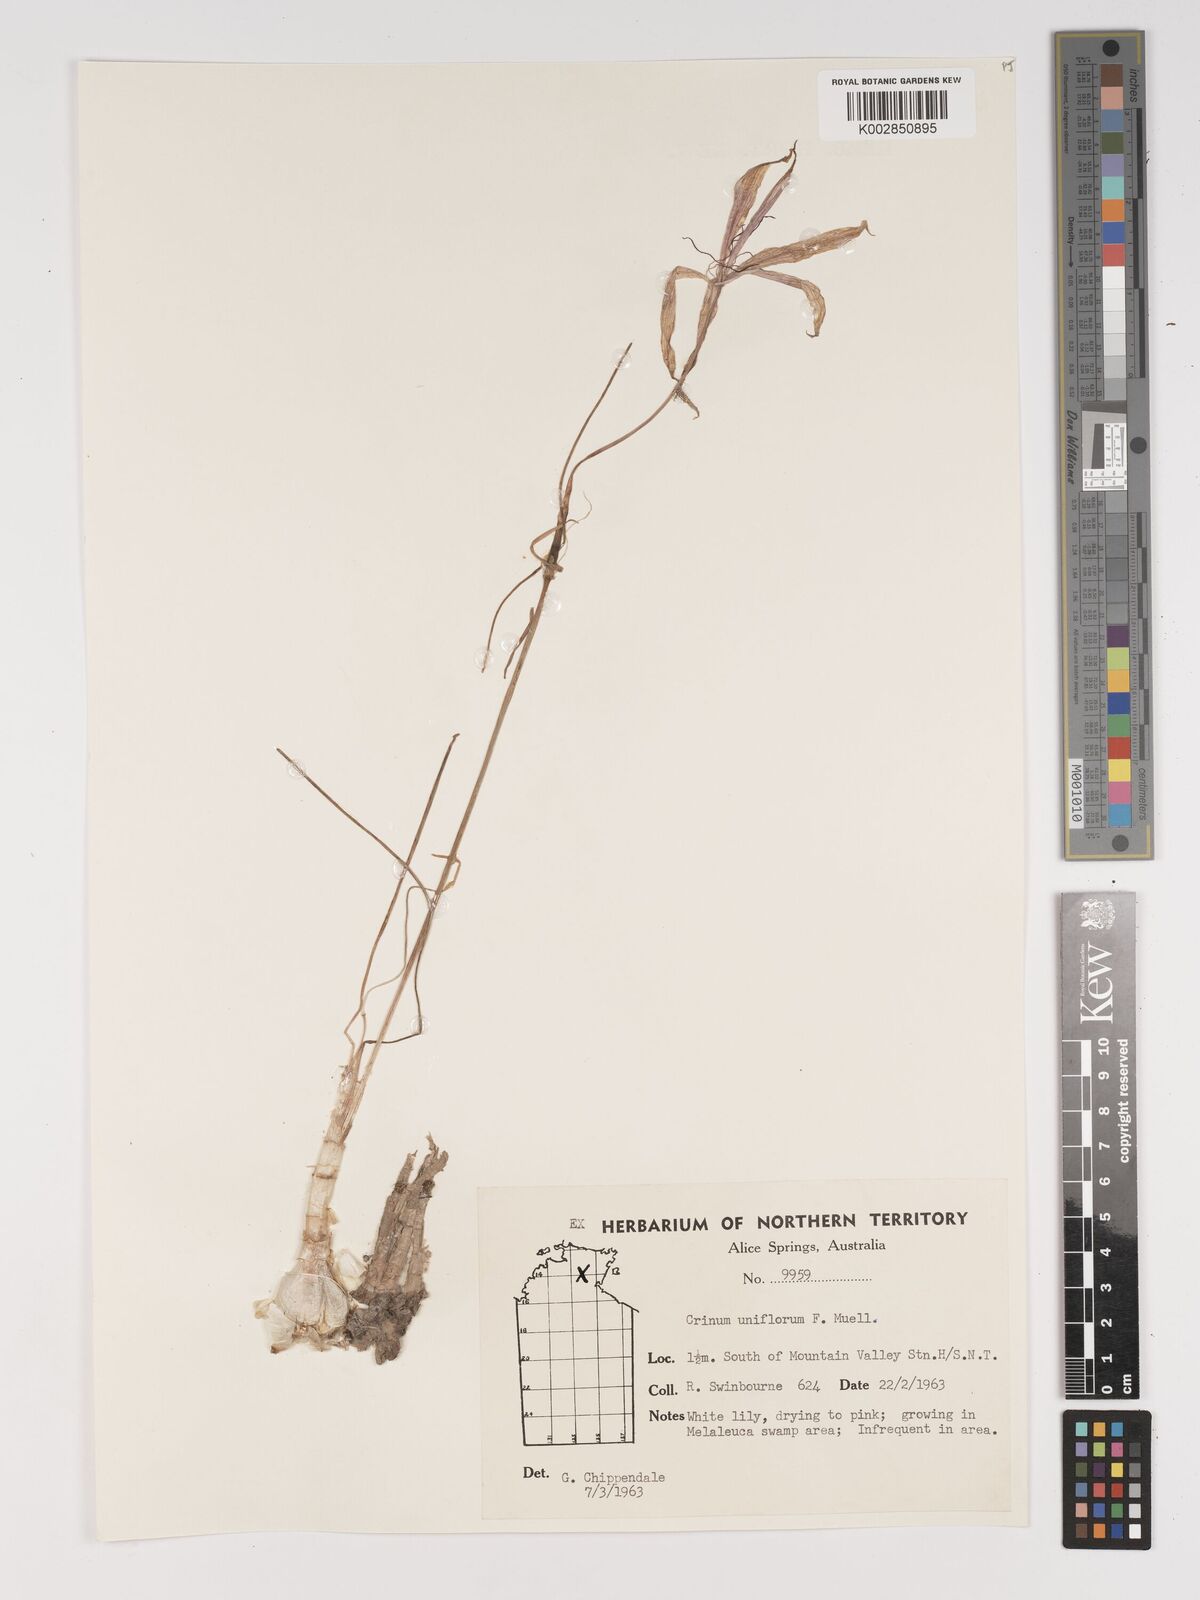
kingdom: Plantae
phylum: Tracheophyta
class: Liliopsida
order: Asparagales
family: Amaryllidaceae
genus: Crinum
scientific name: Crinum uniflorum
